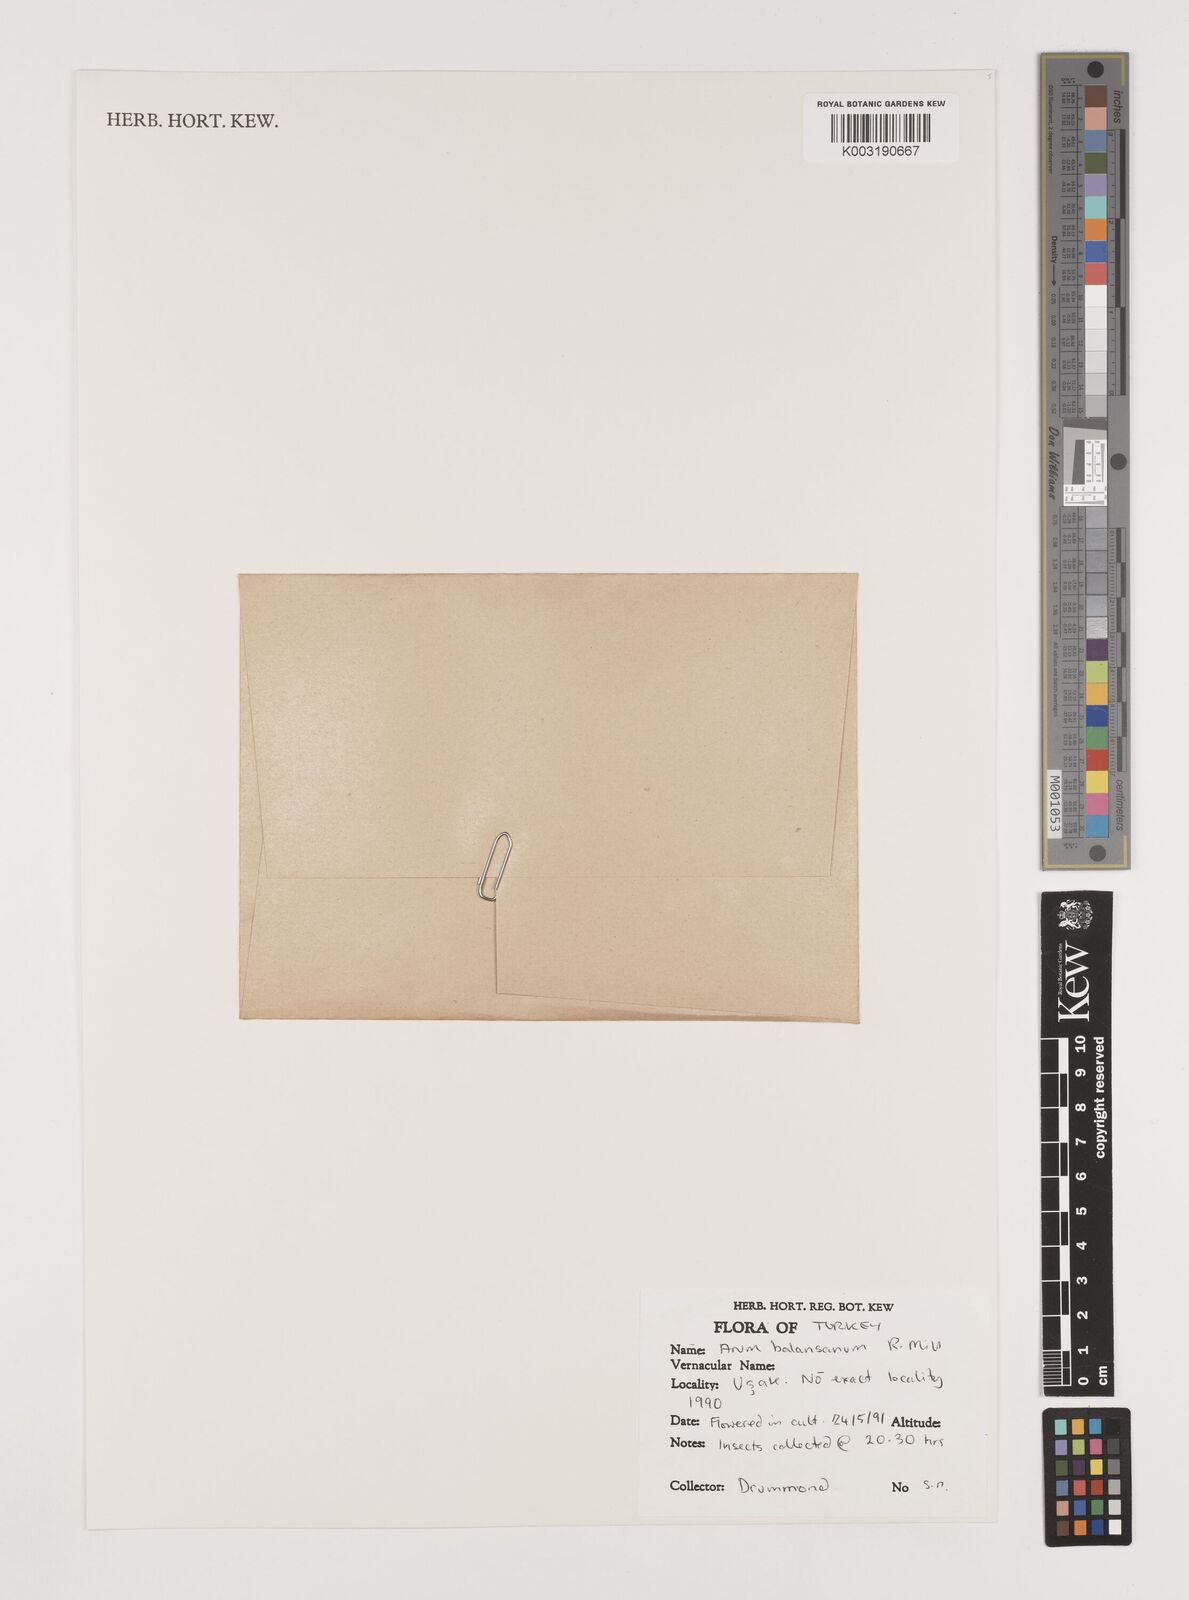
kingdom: Plantae
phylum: Tracheophyta
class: Liliopsida
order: Alismatales
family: Araceae
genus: Arum
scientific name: Arum orientale
